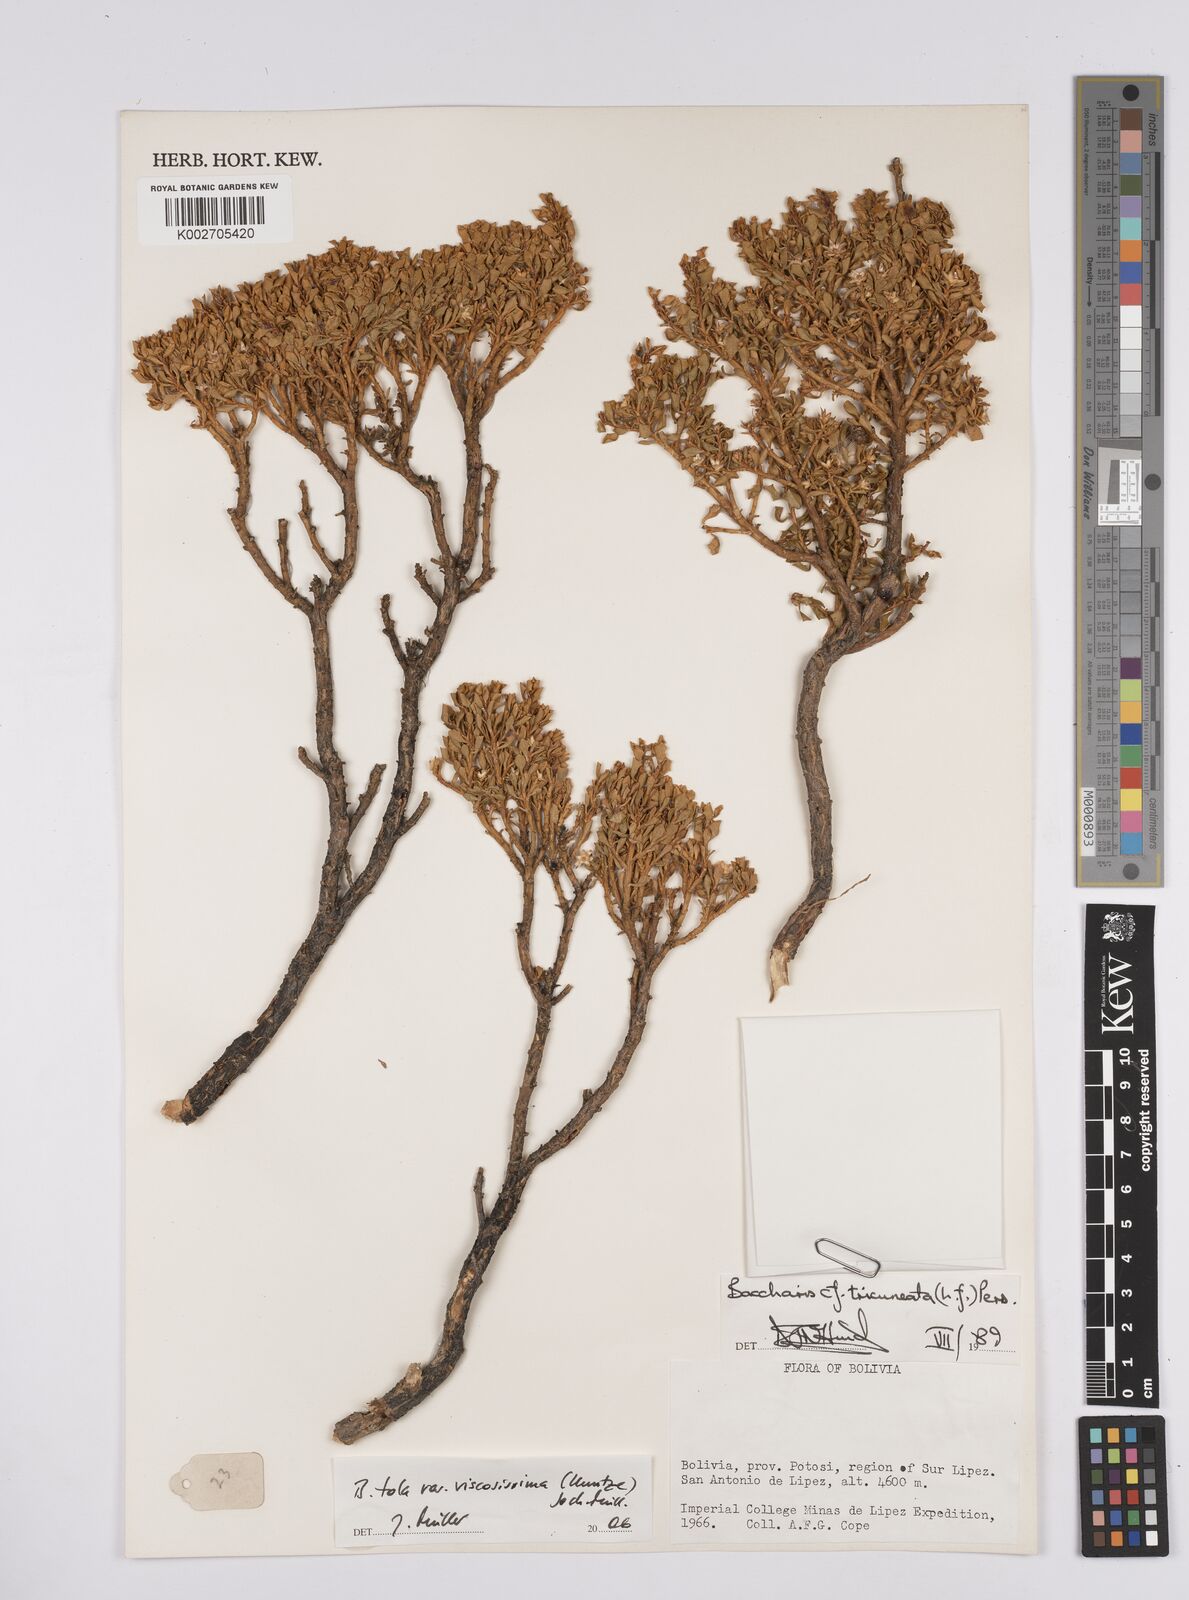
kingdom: Plantae
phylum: Tracheophyta
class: Magnoliopsida
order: Asterales
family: Asteraceae
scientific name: Asteraceae
